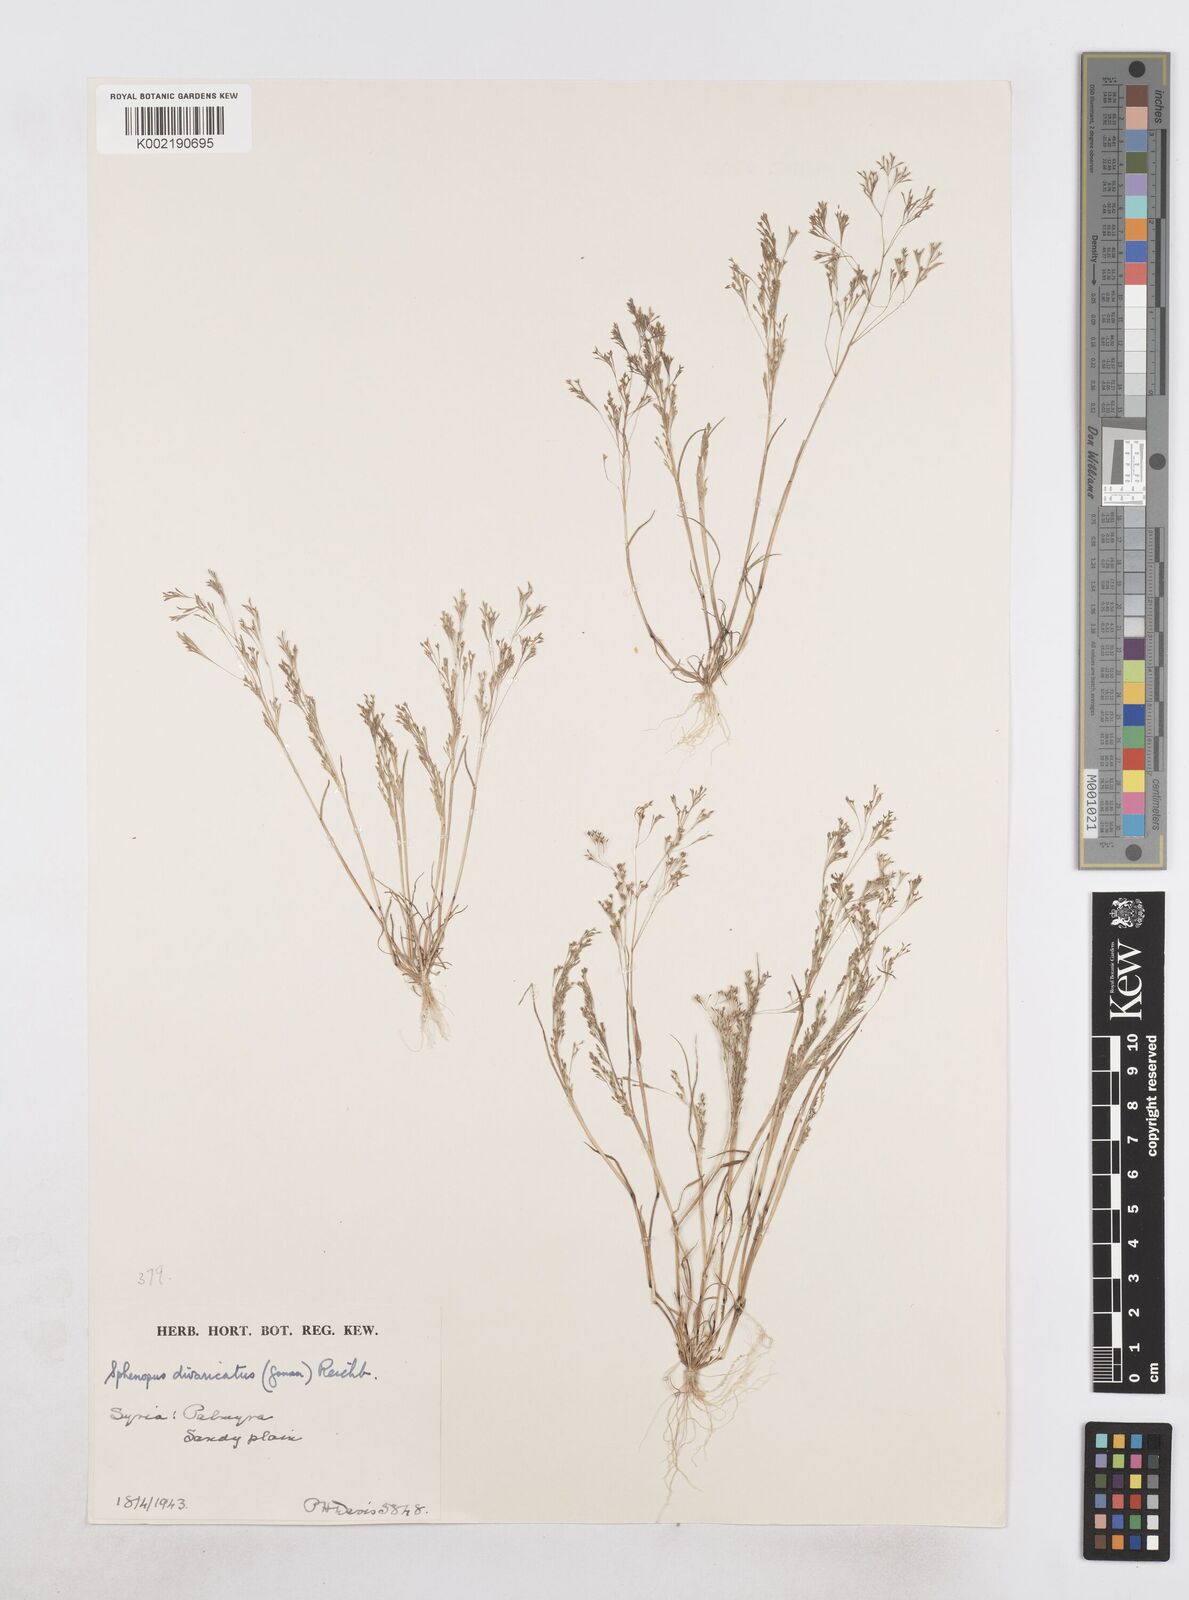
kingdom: Plantae
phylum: Tracheophyta
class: Liliopsida
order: Poales
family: Poaceae
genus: Sphenopus
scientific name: Sphenopus divaricatus
